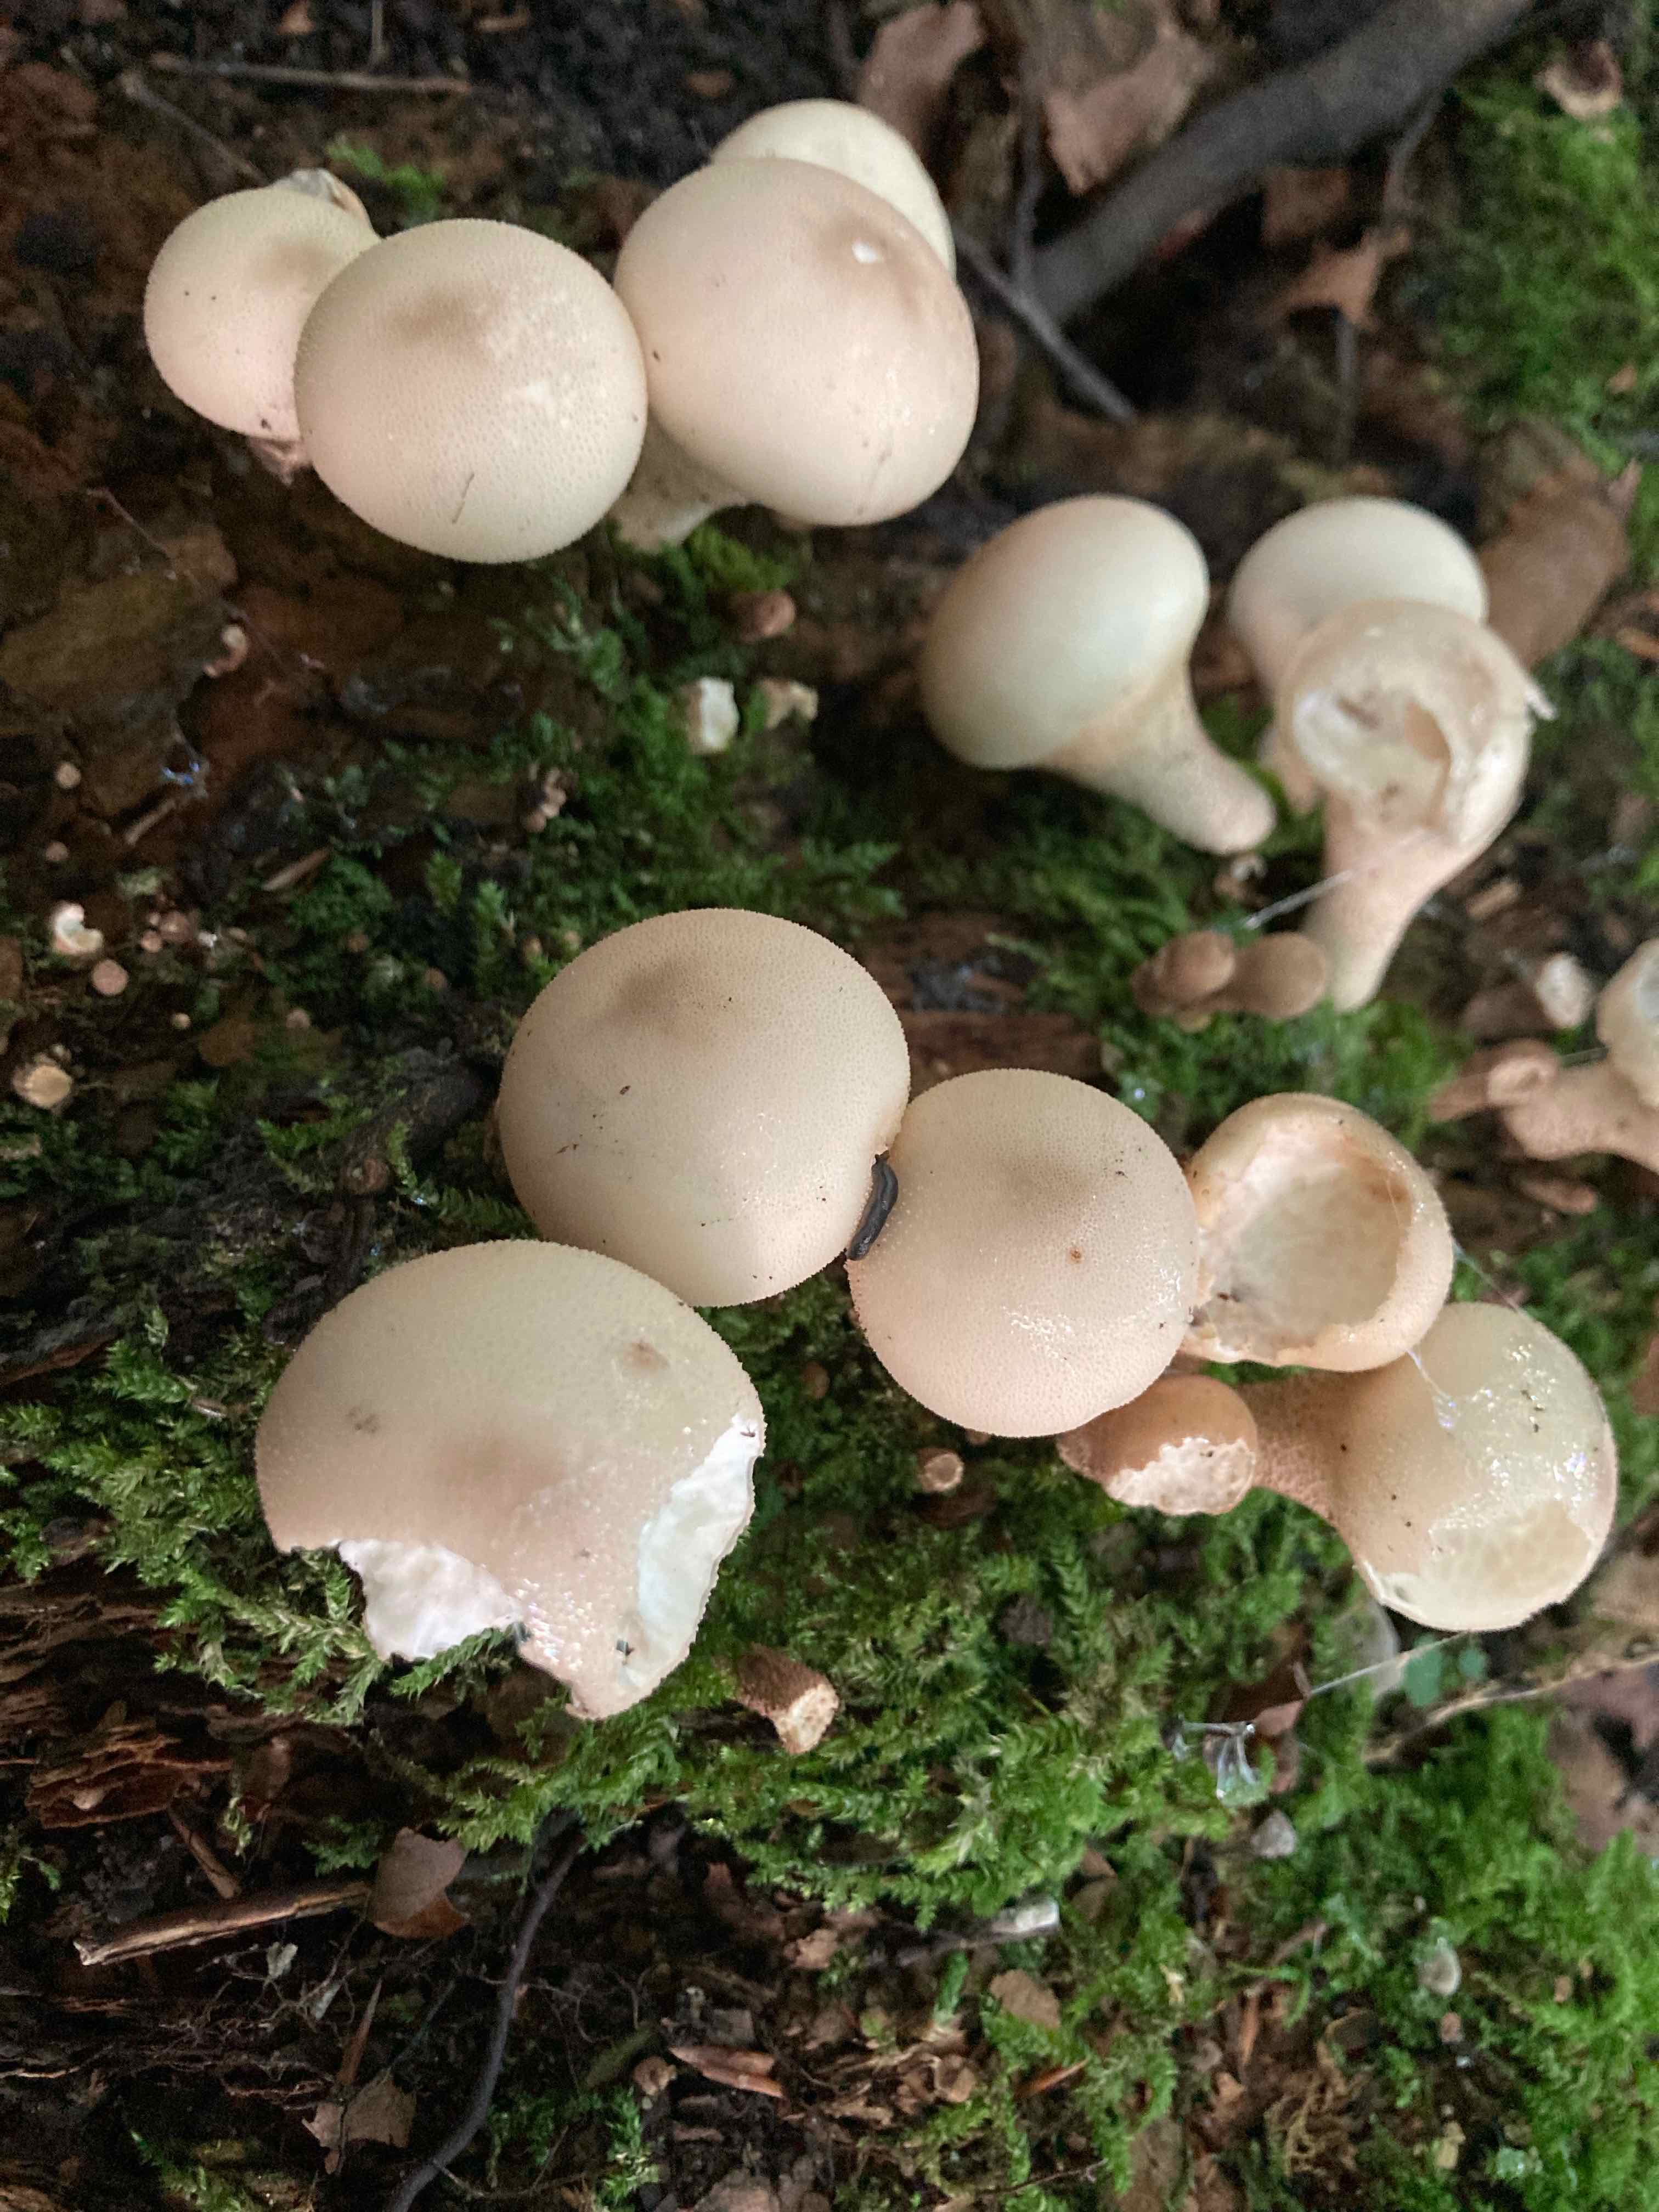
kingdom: Fungi
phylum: Basidiomycota
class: Agaricomycetes
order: Agaricales
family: Lycoperdaceae
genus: Apioperdon
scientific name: Apioperdon pyriforme
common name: pære-støvbold
